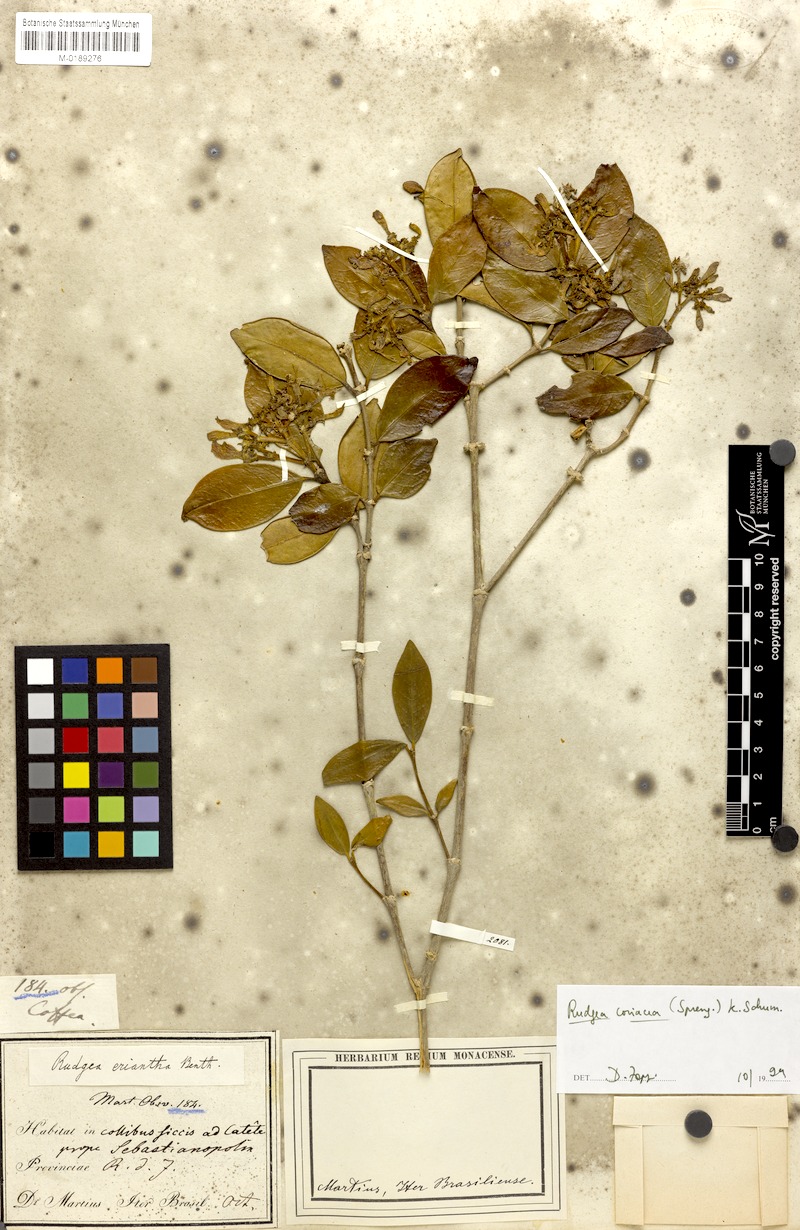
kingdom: Plantae
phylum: Tracheophyta
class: Magnoliopsida
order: Gentianales
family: Rubiaceae
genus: Rudgea
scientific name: Rudgea coriacea
